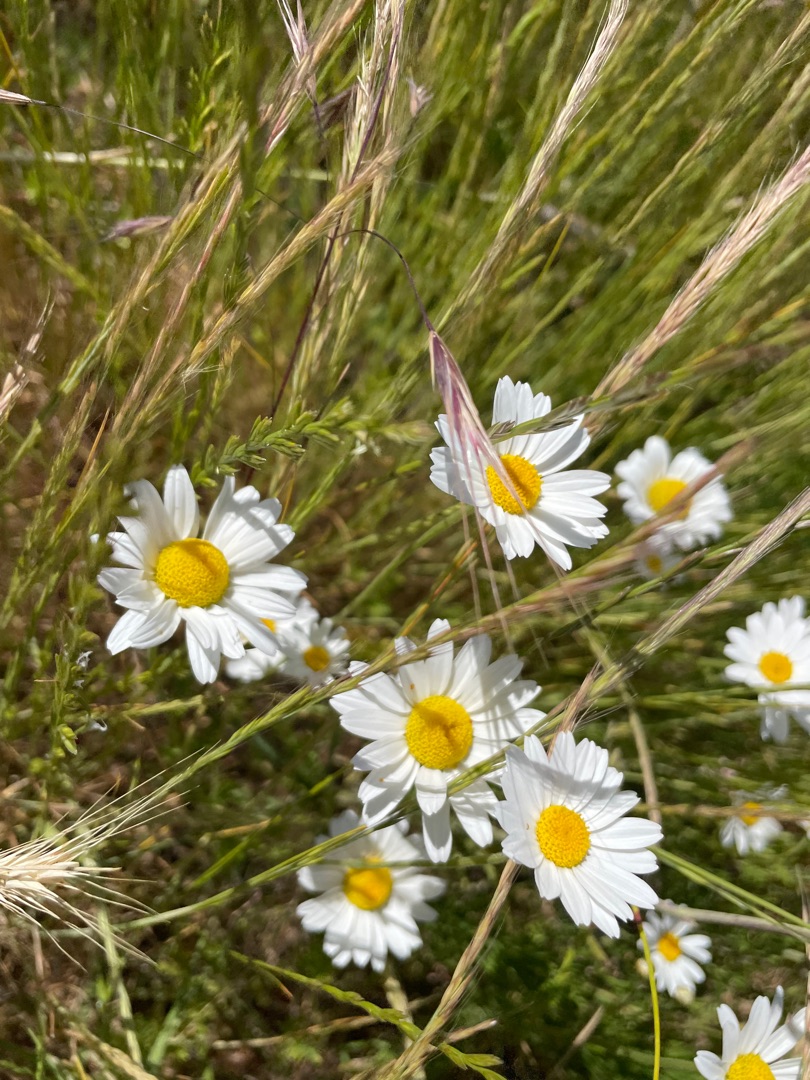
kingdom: Plantae
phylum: Tracheophyta
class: Magnoliopsida
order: Asterales
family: Asteraceae
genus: Anthemis
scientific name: Anthemis arvensis
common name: Ager-gåseurt
